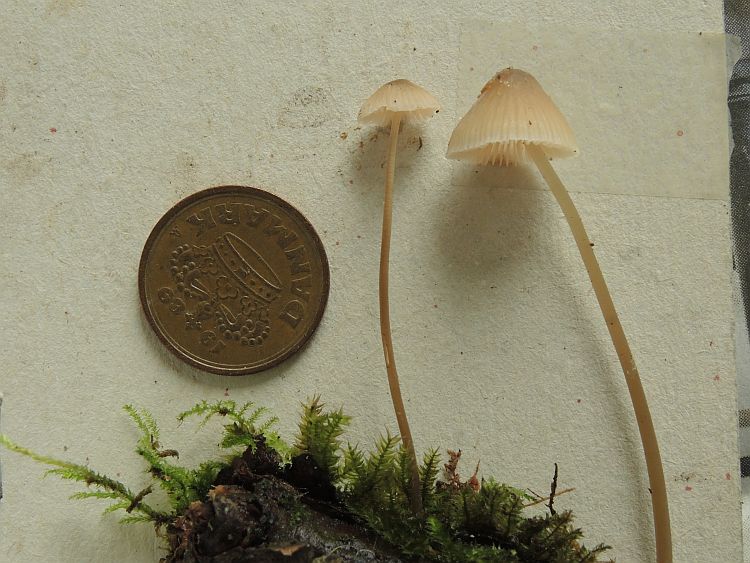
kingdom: Fungi
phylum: Basidiomycota
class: Agaricomycetes
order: Agaricales
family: Mycenaceae
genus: Mycena
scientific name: Mycena metata
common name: rødlig huesvamp
